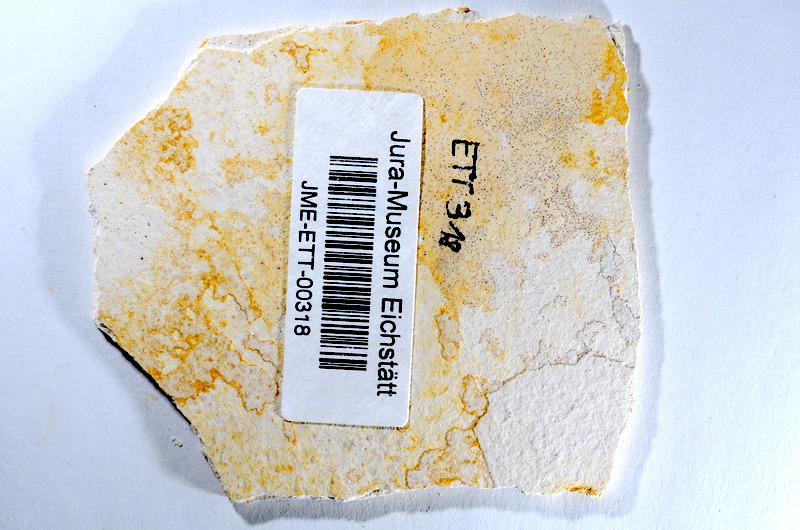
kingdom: Animalia
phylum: Chordata
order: Salmoniformes
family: Orthogonikleithridae
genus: Orthogonikleithrus
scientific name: Orthogonikleithrus hoelli
